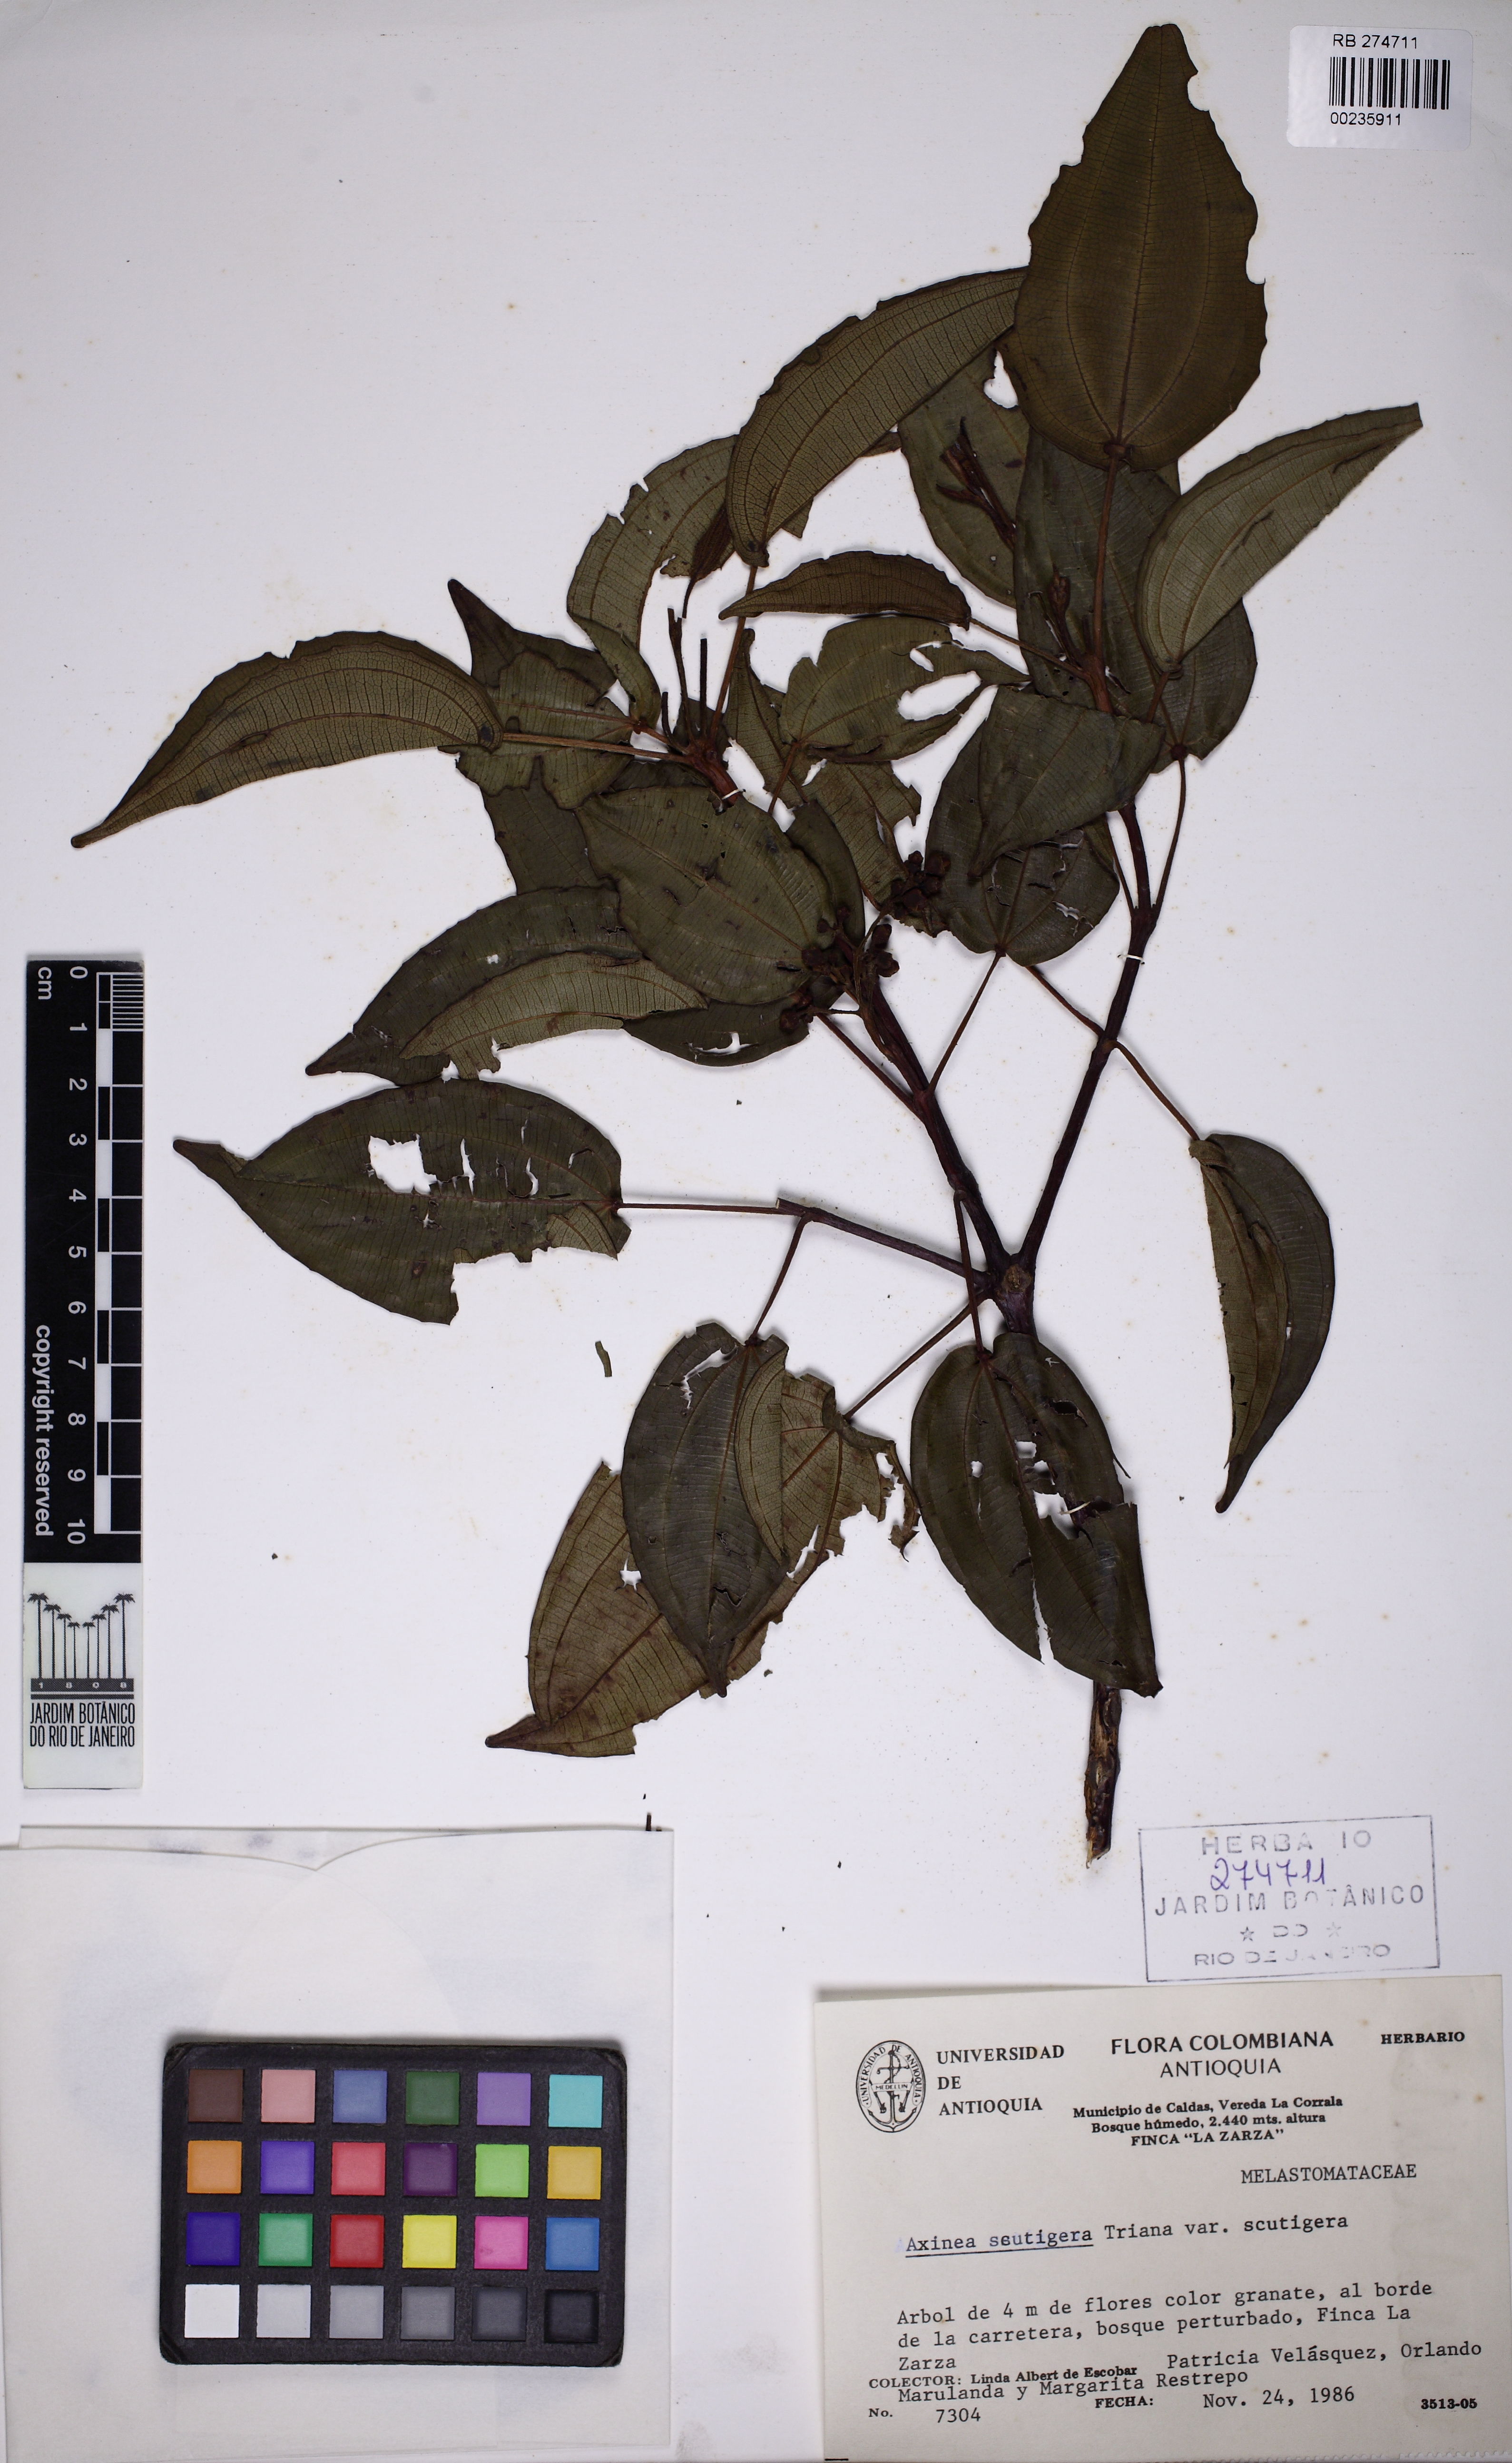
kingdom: Plantae
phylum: Tracheophyta
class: Magnoliopsida
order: Myrtales
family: Melastomataceae
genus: Axinaea
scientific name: Axinaea scutigera
